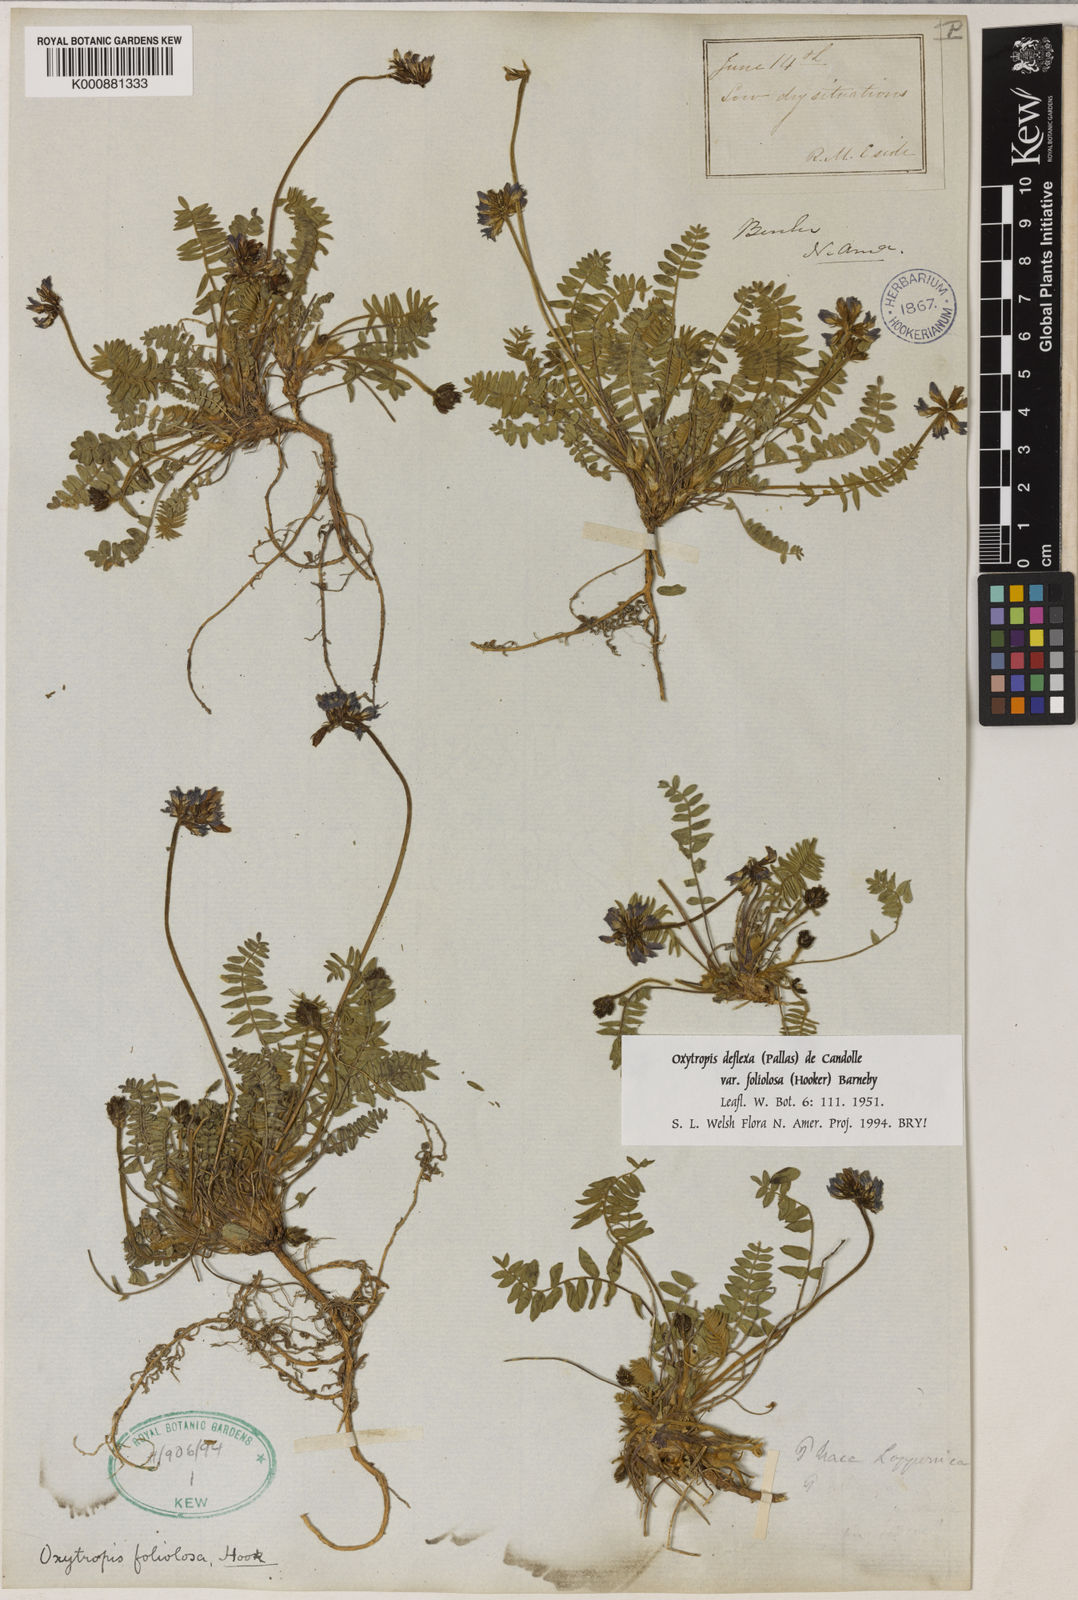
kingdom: Plantae
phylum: Tracheophyta
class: Magnoliopsida
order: Fabales
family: Fabaceae
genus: Oxytropis
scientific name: Oxytropis deflexa
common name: Stemmed oxytrope
